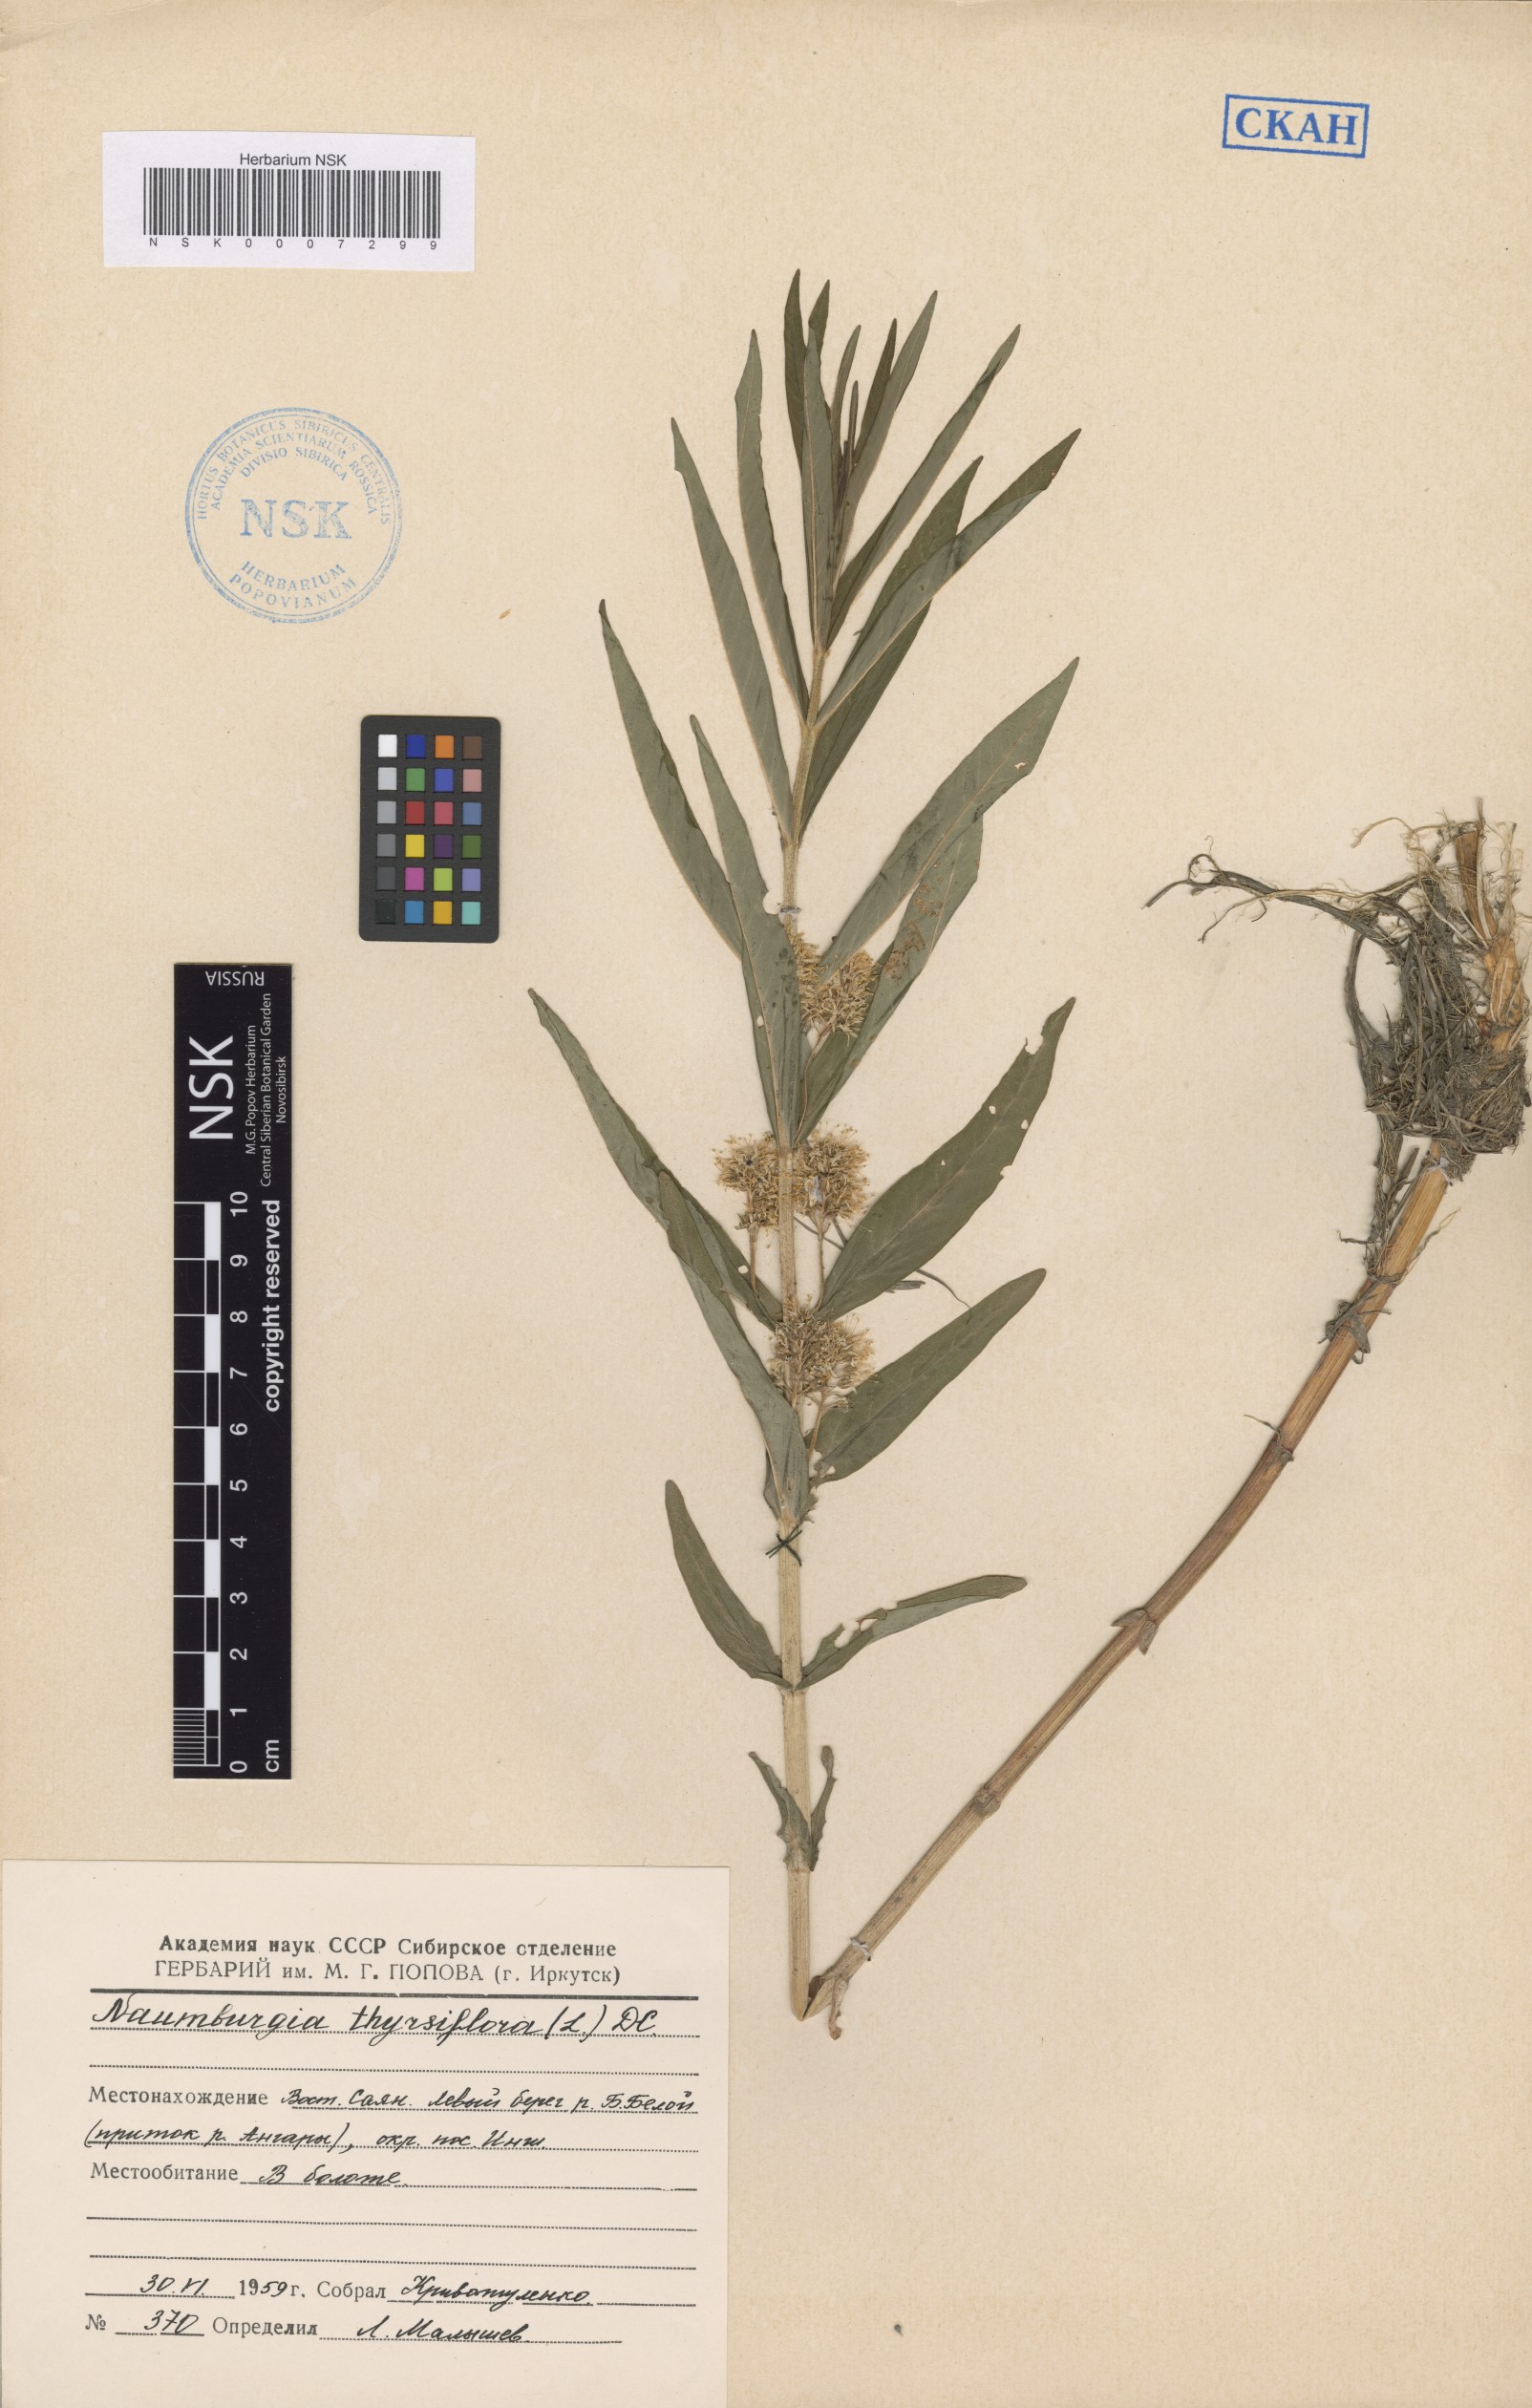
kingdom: Plantae
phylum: Tracheophyta
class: Magnoliopsida
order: Ericales
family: Primulaceae
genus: Lysimachia
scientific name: Lysimachia thyrsiflora
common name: Tufted loosestrife
